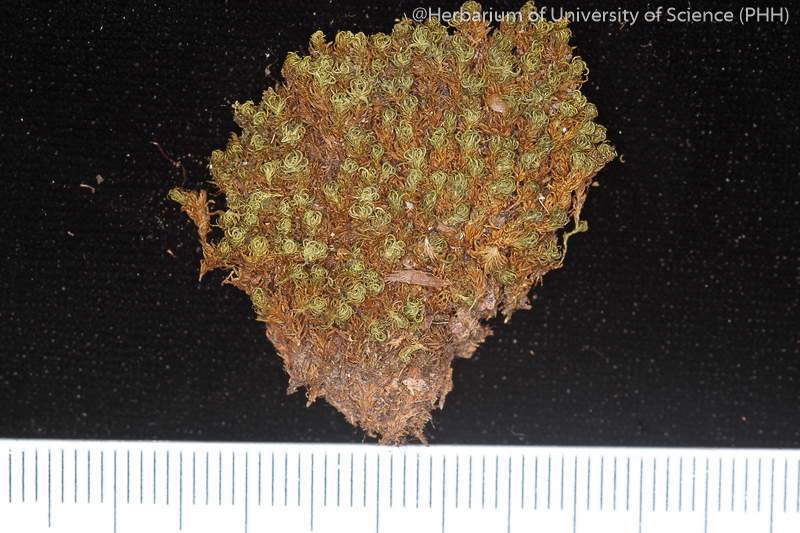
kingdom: Plantae
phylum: Bryophyta
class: Bryopsida
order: Bryales
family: Mniaceae
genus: Plagiomnium
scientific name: Plagiomnium succulentum
